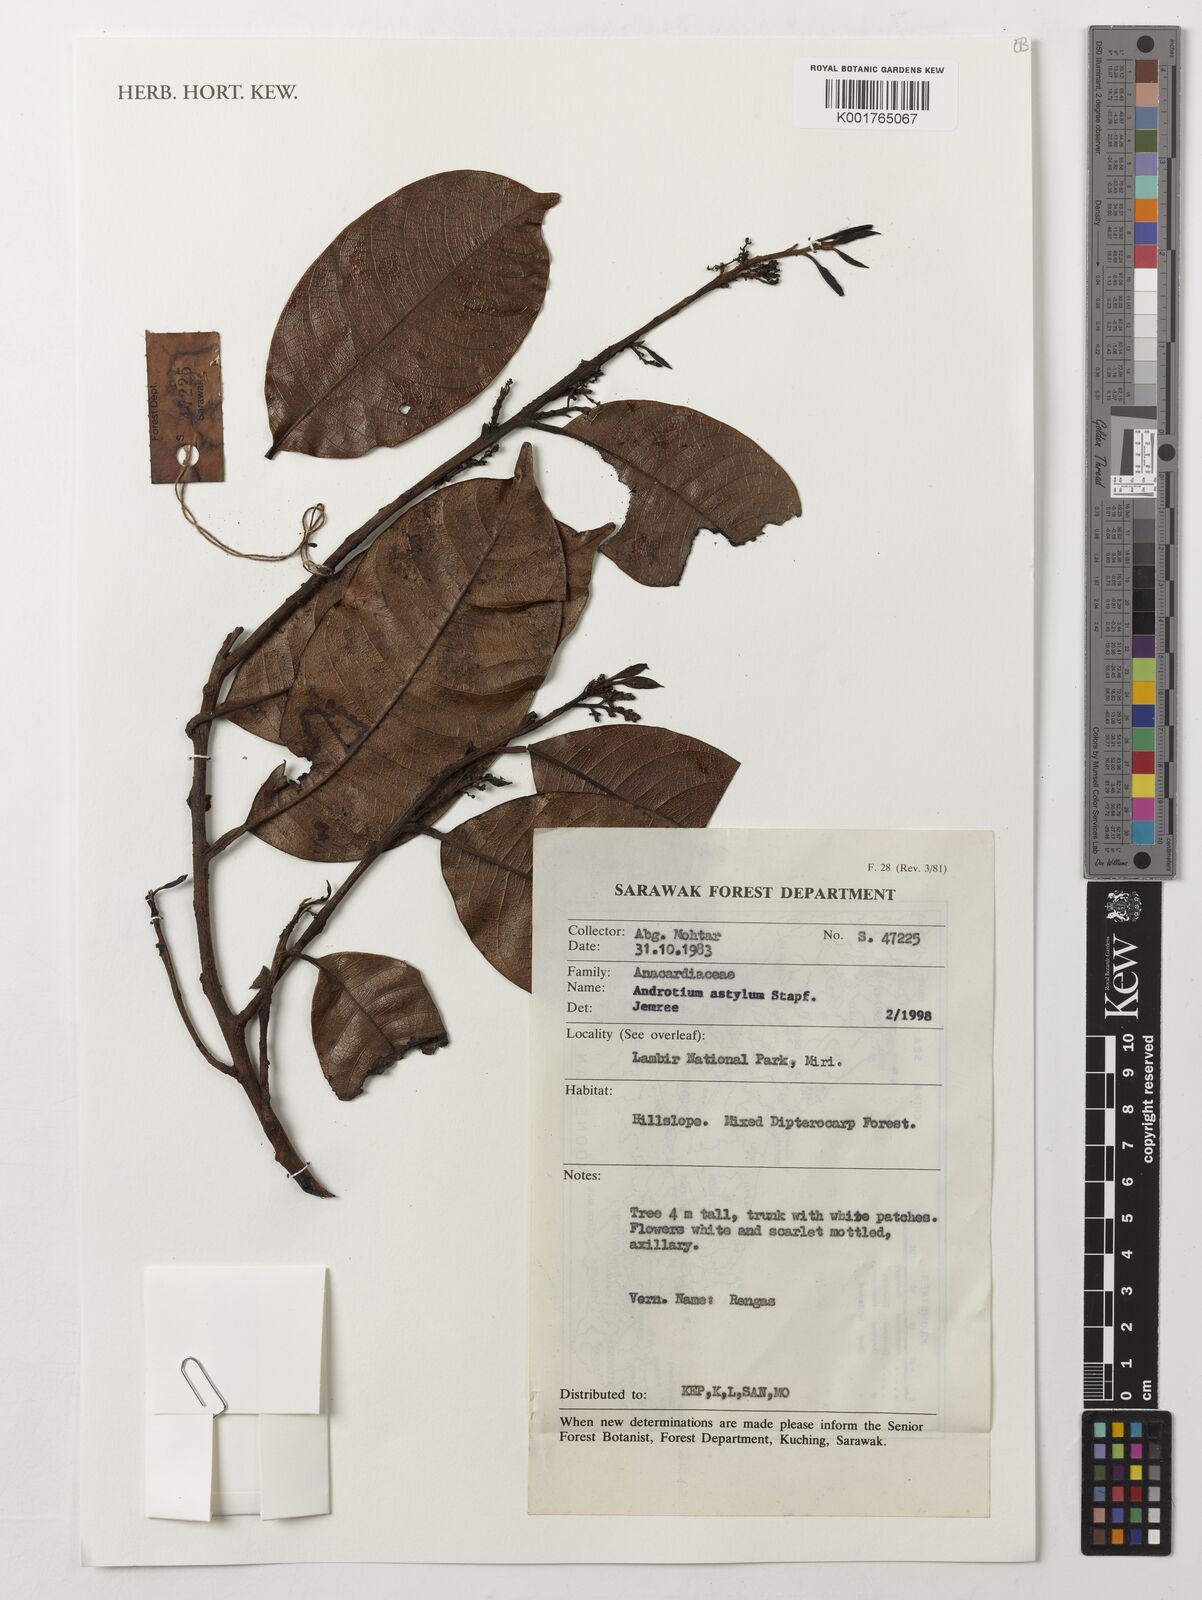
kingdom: Plantae
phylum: Tracheophyta
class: Magnoliopsida
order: Sapindales
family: Anacardiaceae
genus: Androtium
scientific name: Androtium astylum
